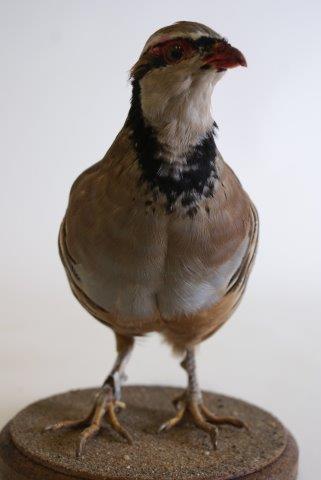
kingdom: Animalia
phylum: Chordata
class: Aves
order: Galliformes
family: Phasianidae
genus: Alectoris
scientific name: Alectoris rufa
